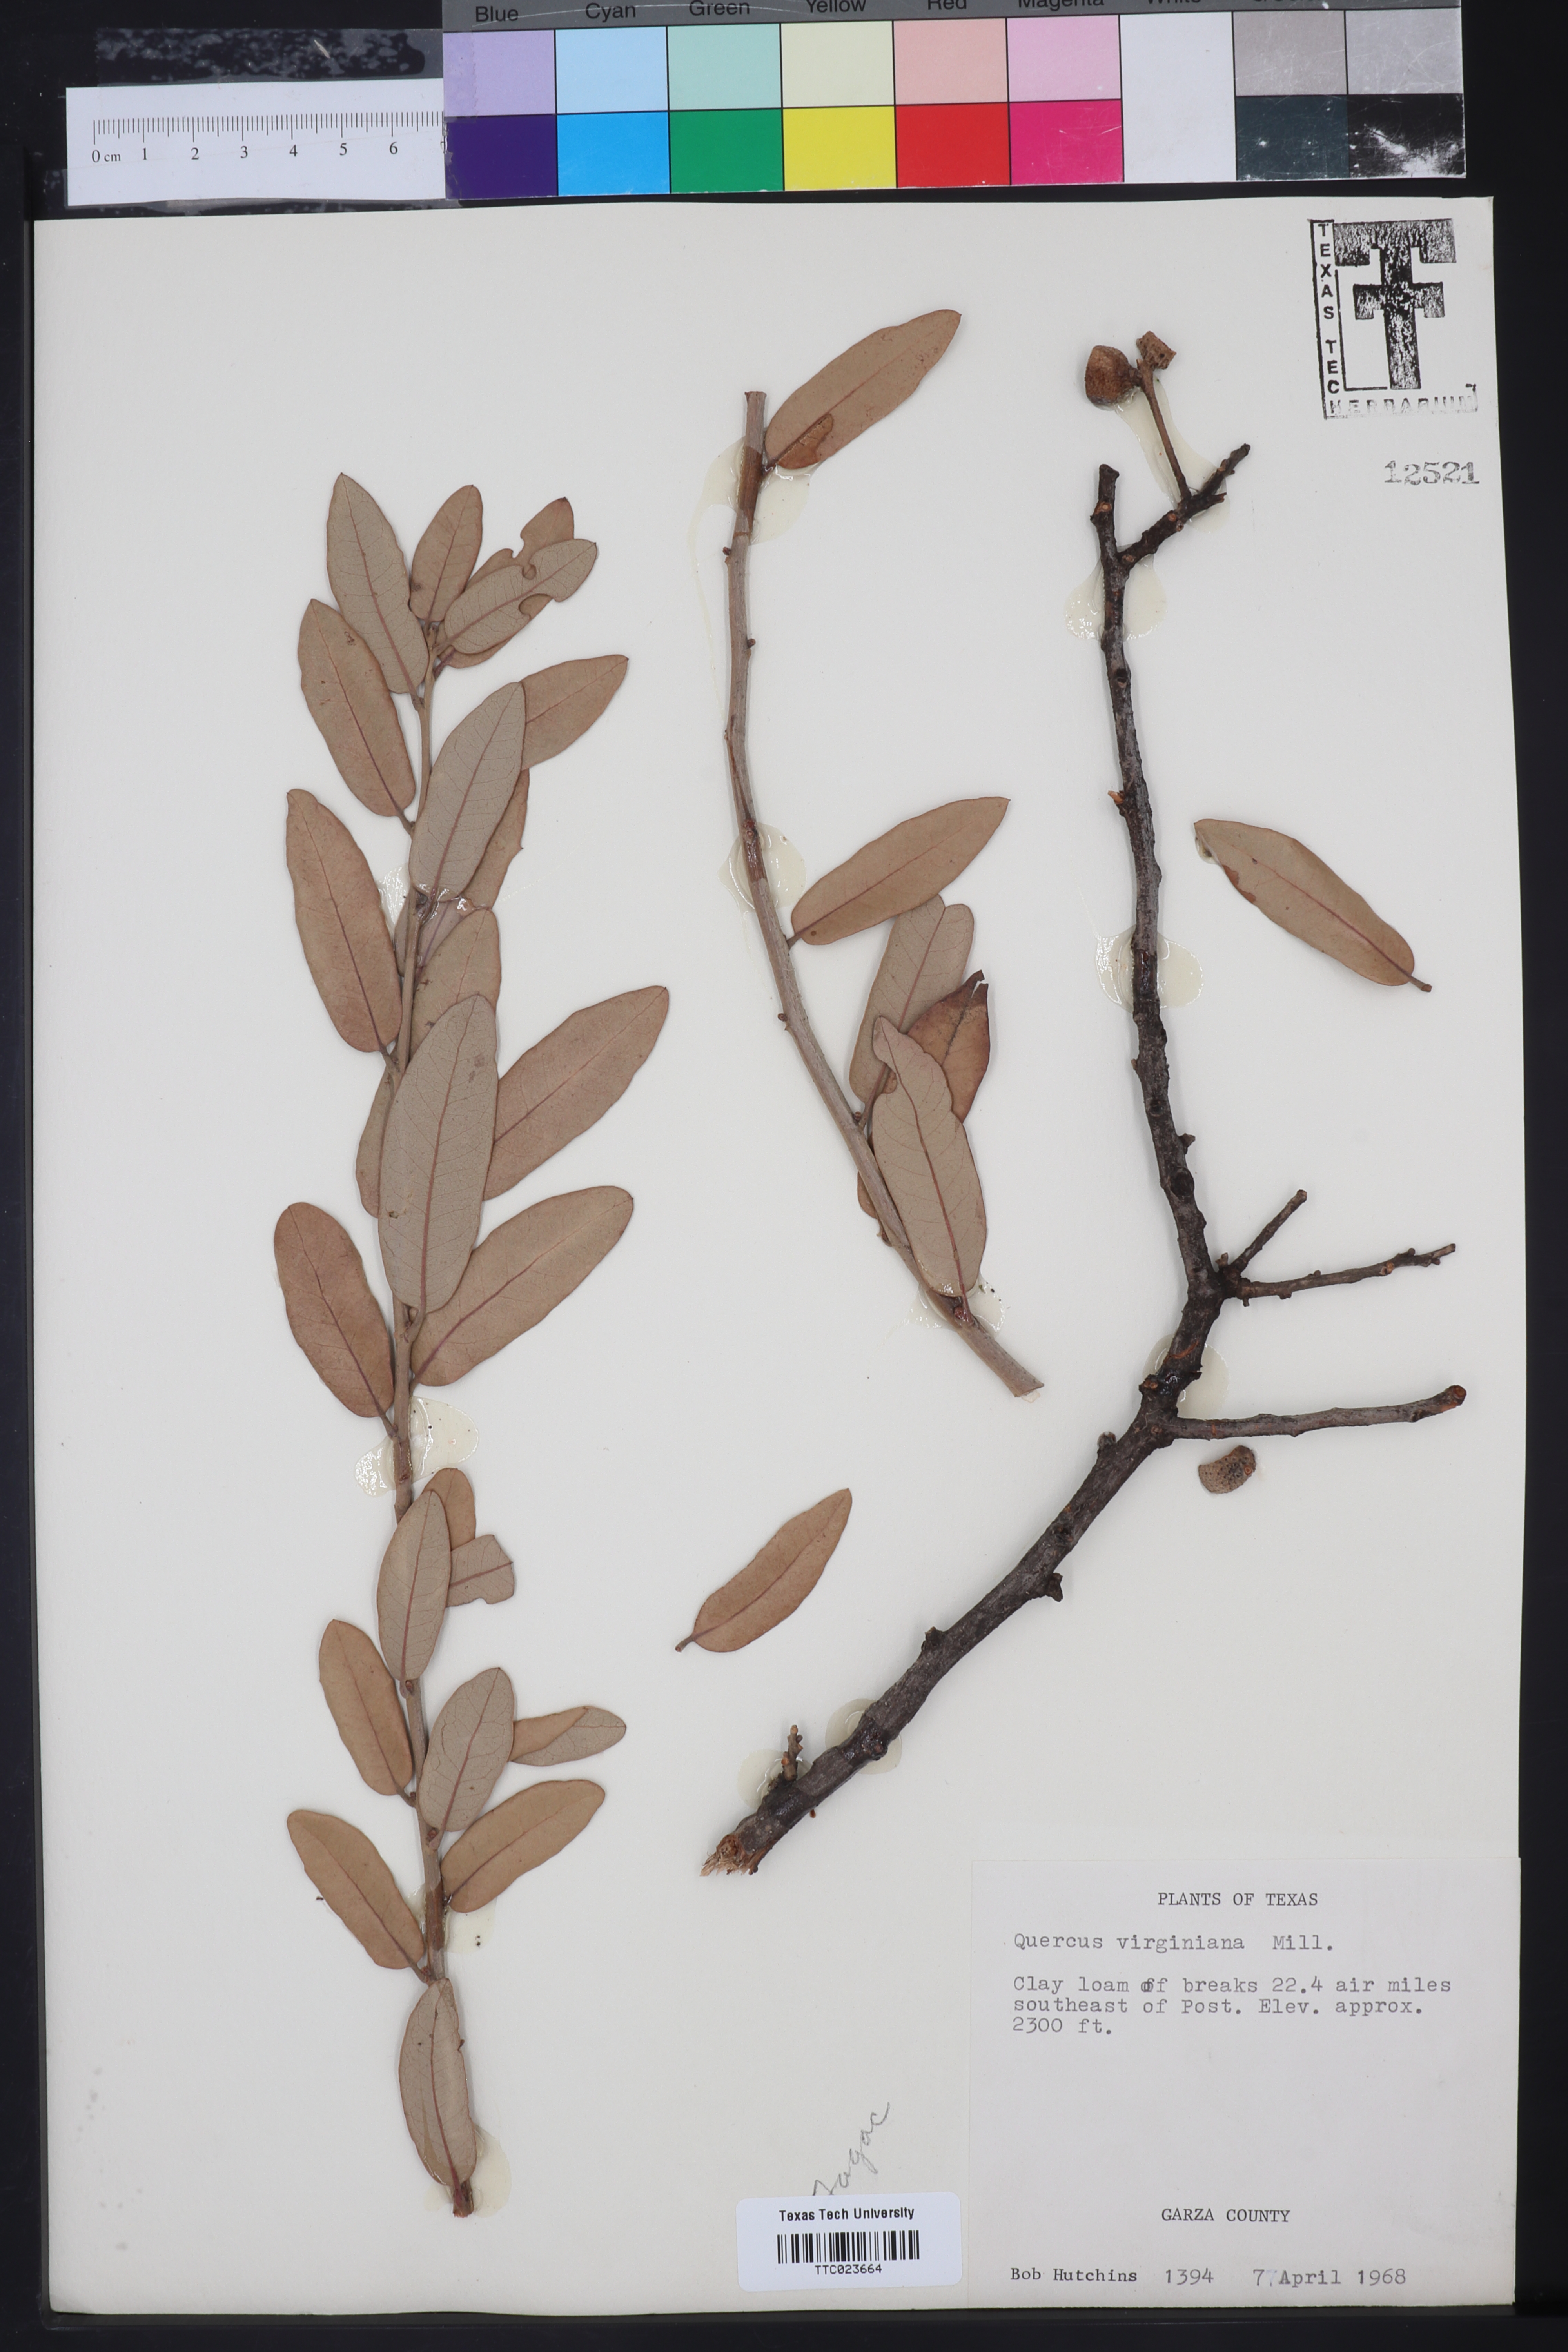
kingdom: Plantae
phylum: Tracheophyta
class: Magnoliopsida
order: Fagales
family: Fagaceae
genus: Quercus
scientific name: Quercus virginiana
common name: Southern live oak
